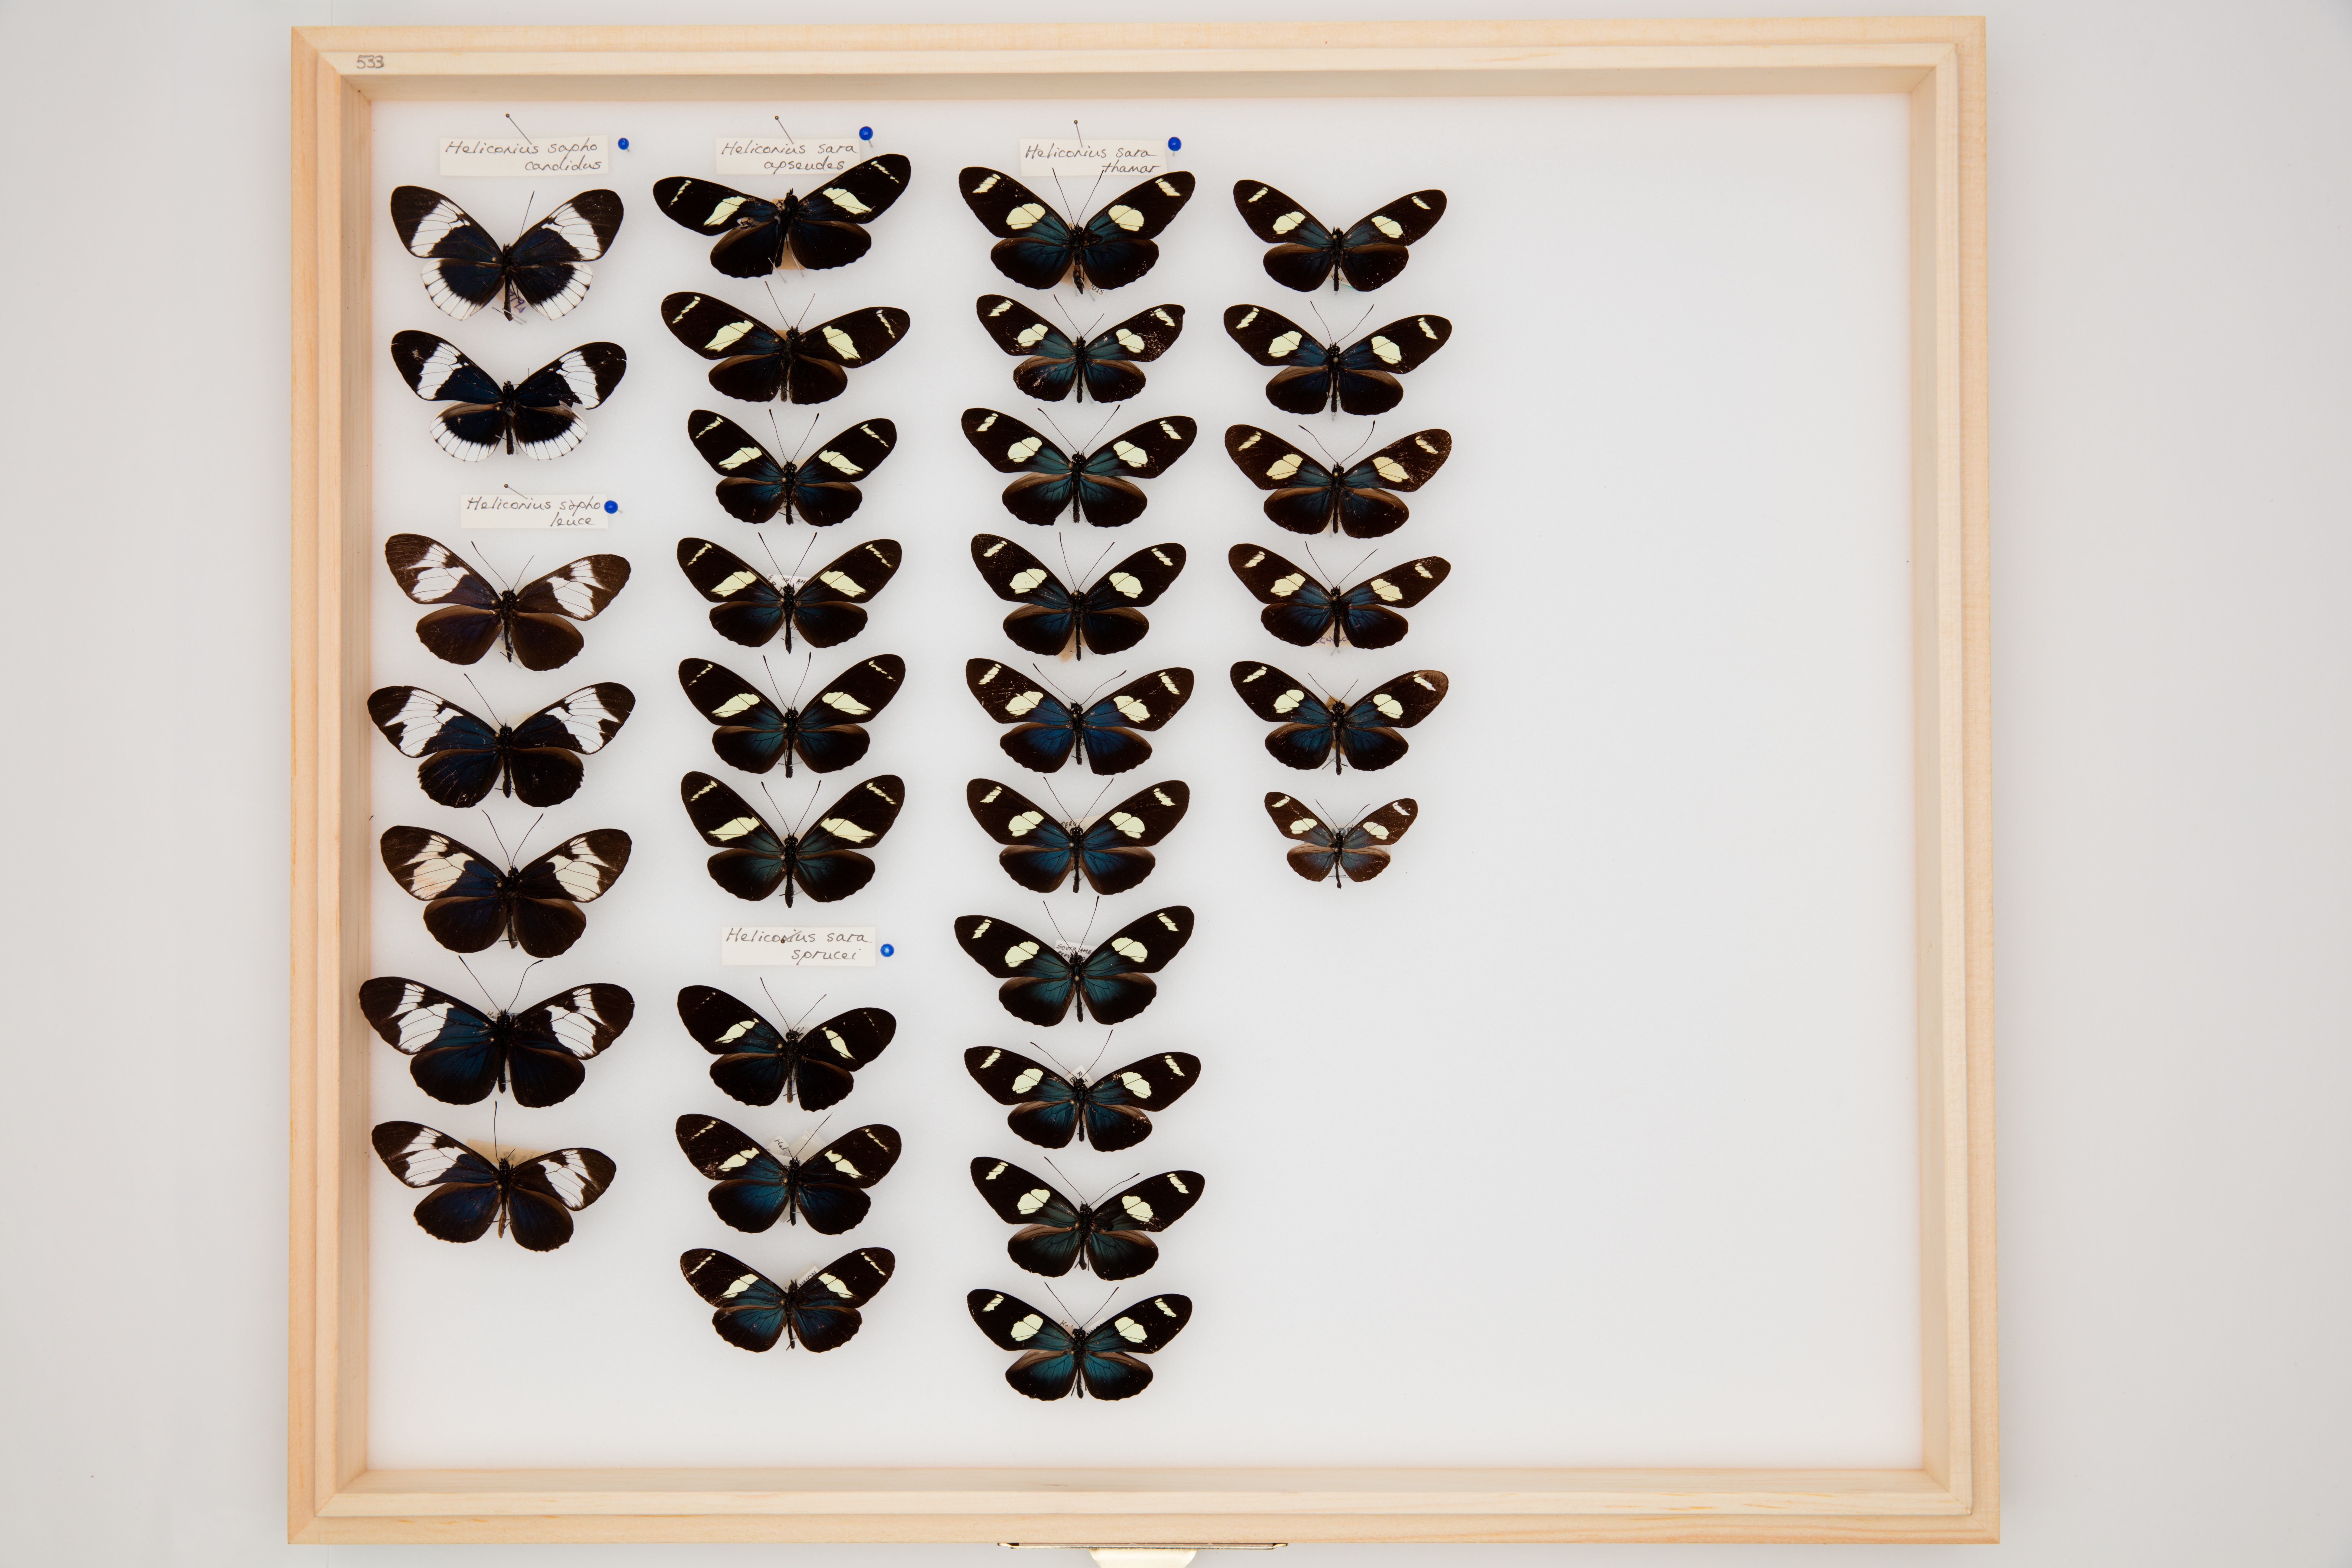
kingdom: Animalia
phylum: Arthropoda
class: Insecta
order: Lepidoptera
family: Nymphalidae
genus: Heliconius
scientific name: Heliconius sara
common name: Sara longwing
